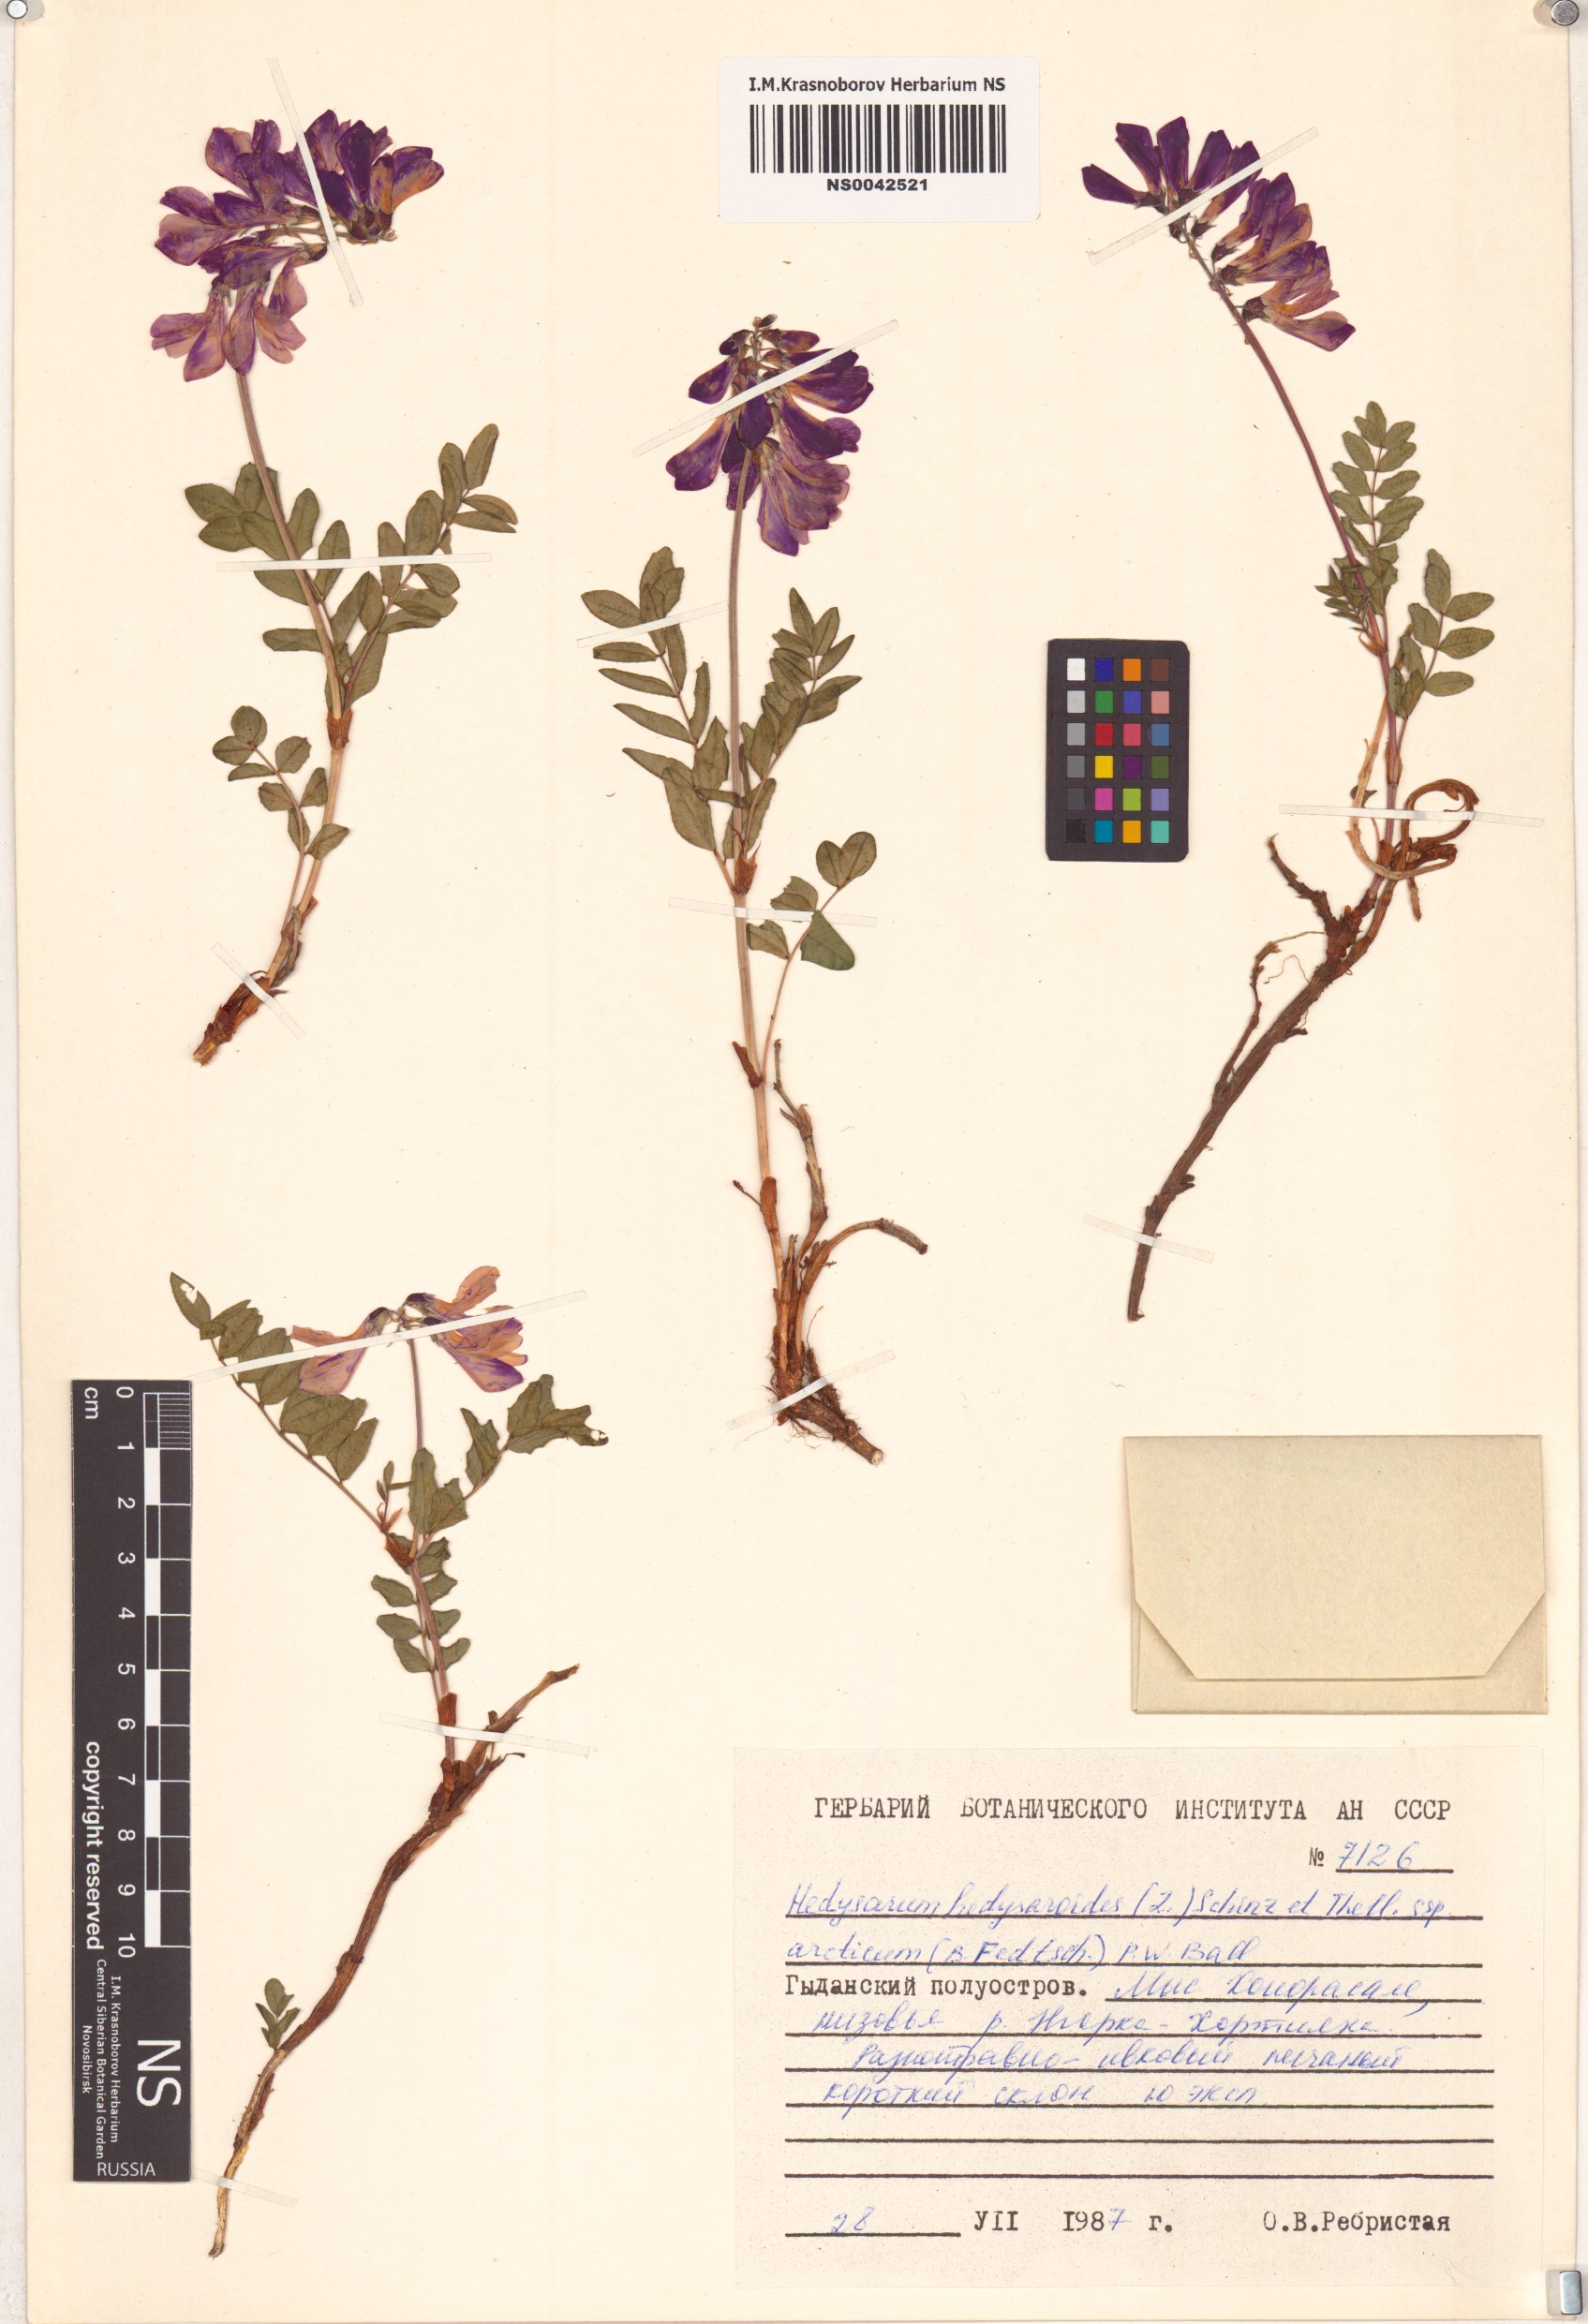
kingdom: Plantae
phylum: Tracheophyta
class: Magnoliopsida
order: Fabales
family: Fabaceae
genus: Hedysarum
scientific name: Hedysarum hedysaroides
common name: Alpine french-honeysuckle
